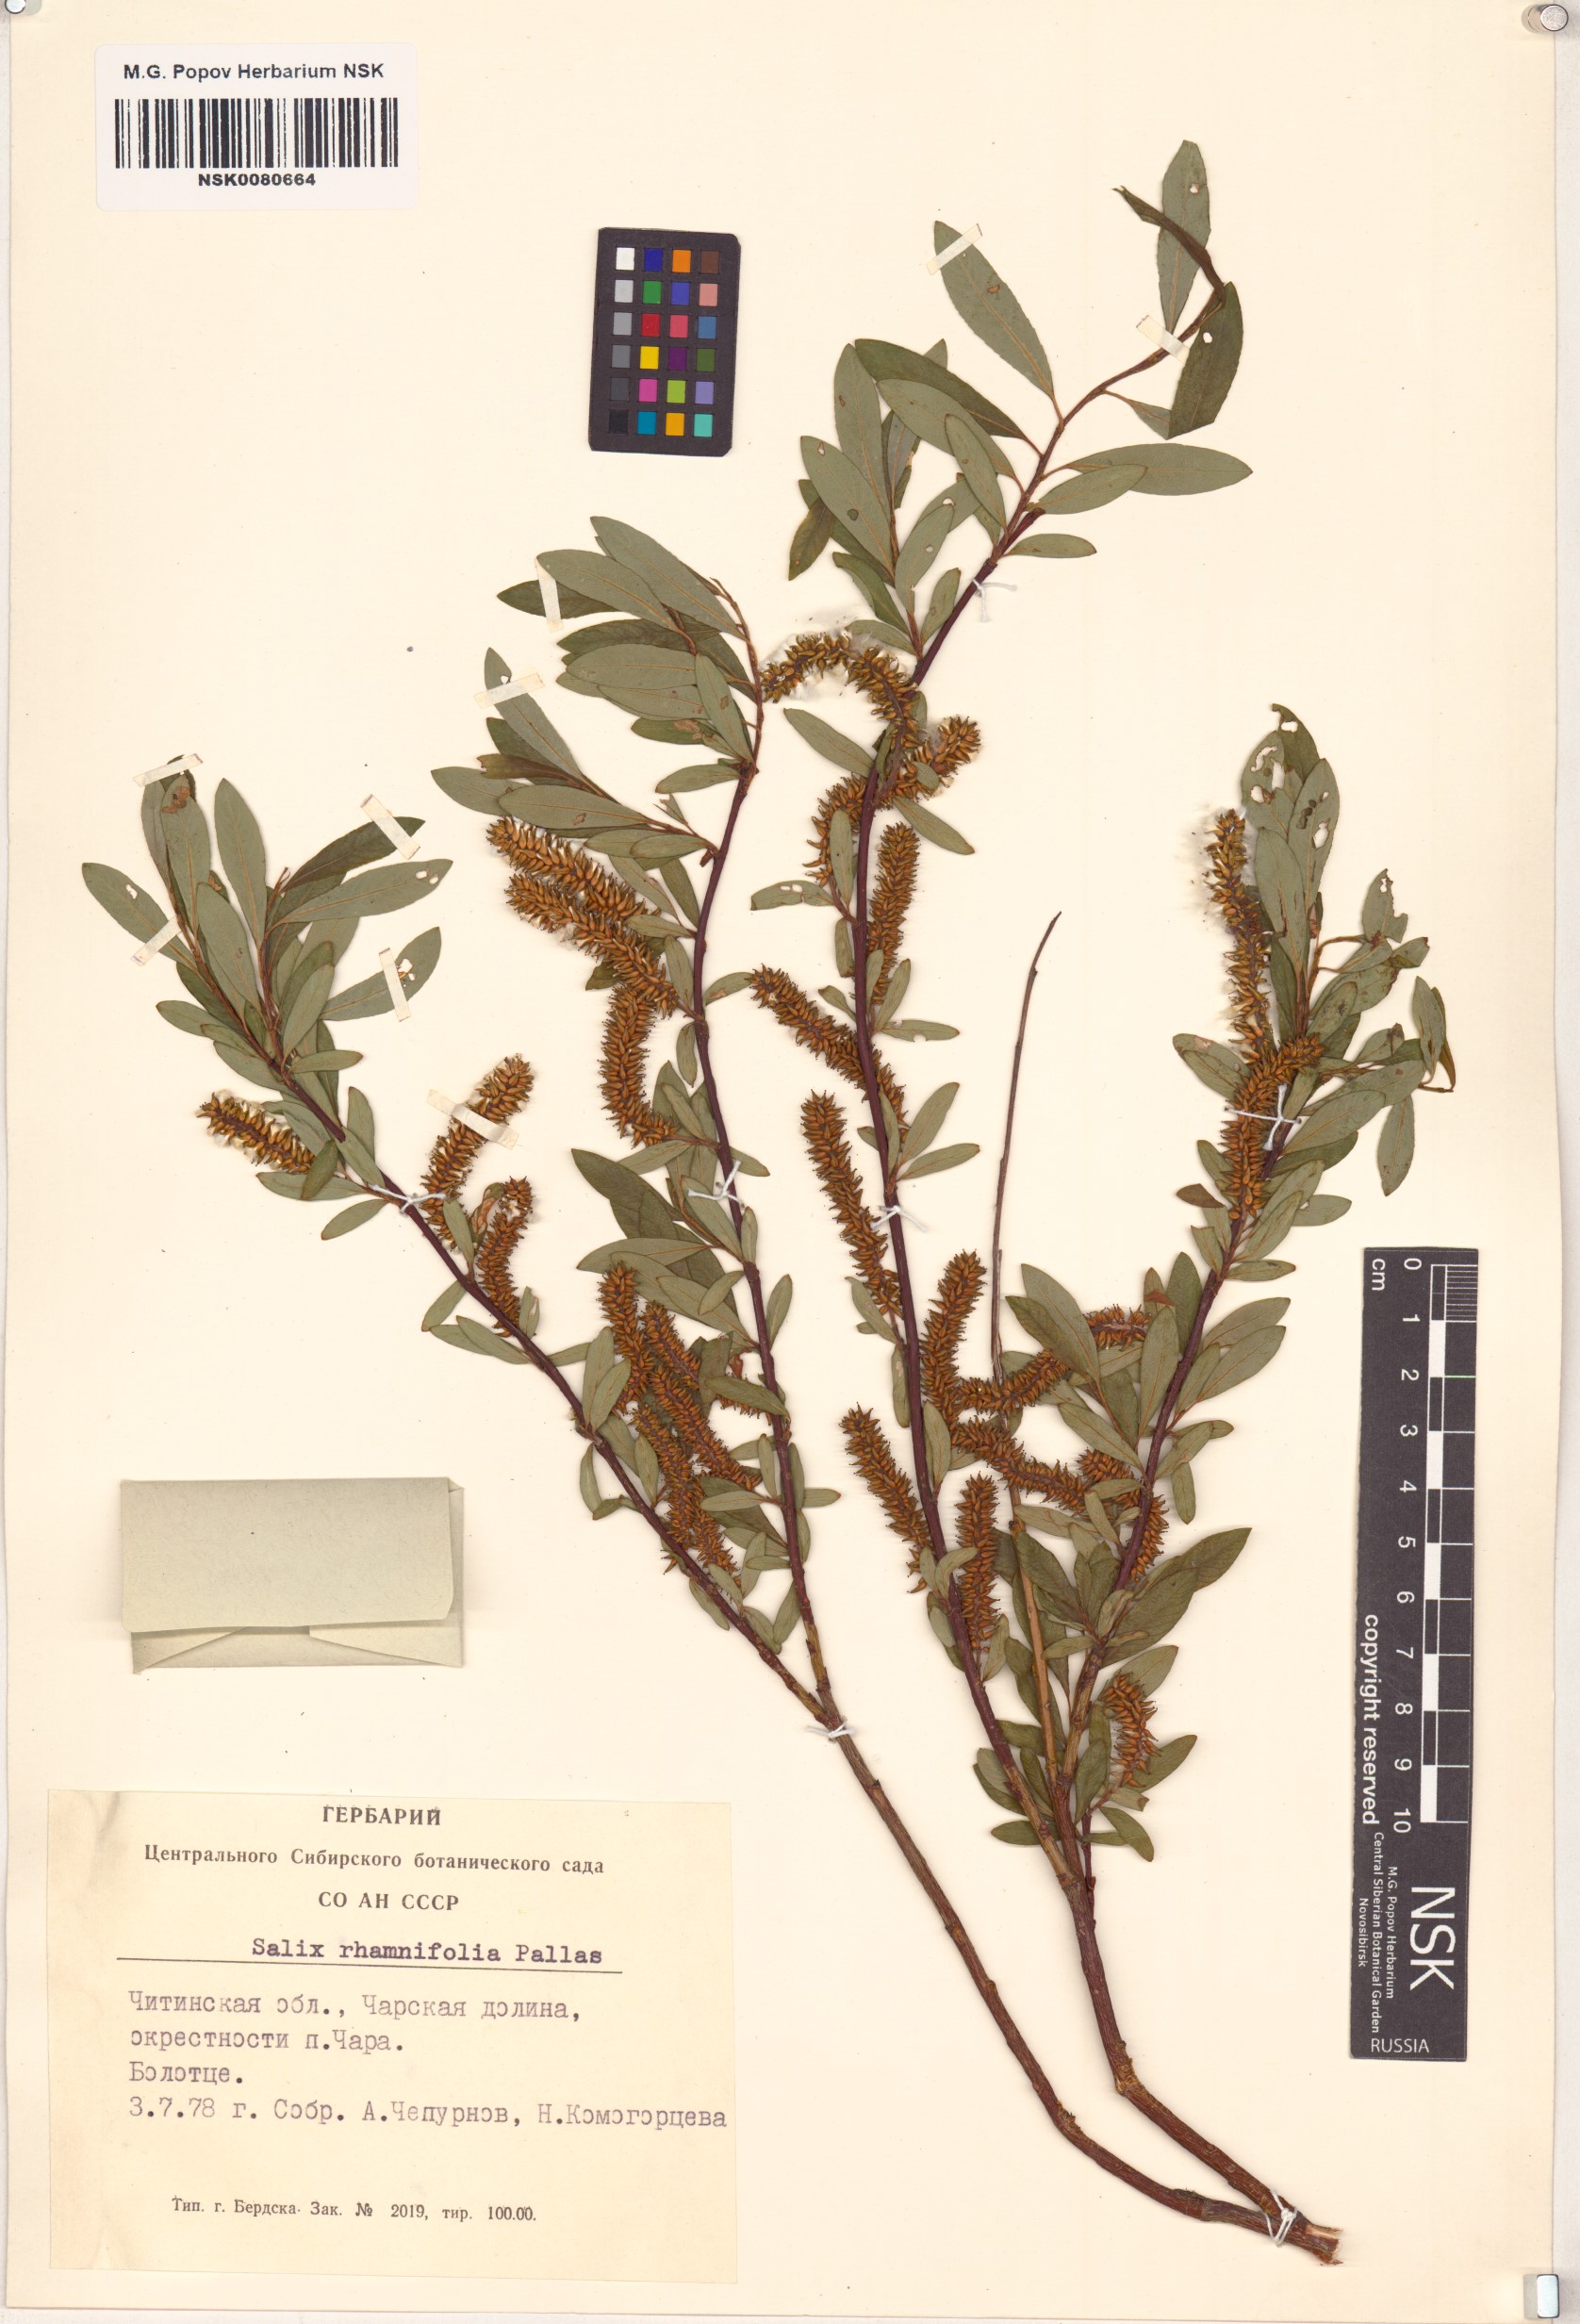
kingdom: Plantae
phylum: Tracheophyta
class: Magnoliopsida
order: Malpighiales
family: Salicaceae
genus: Salix
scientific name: Salix rhamnifolia
